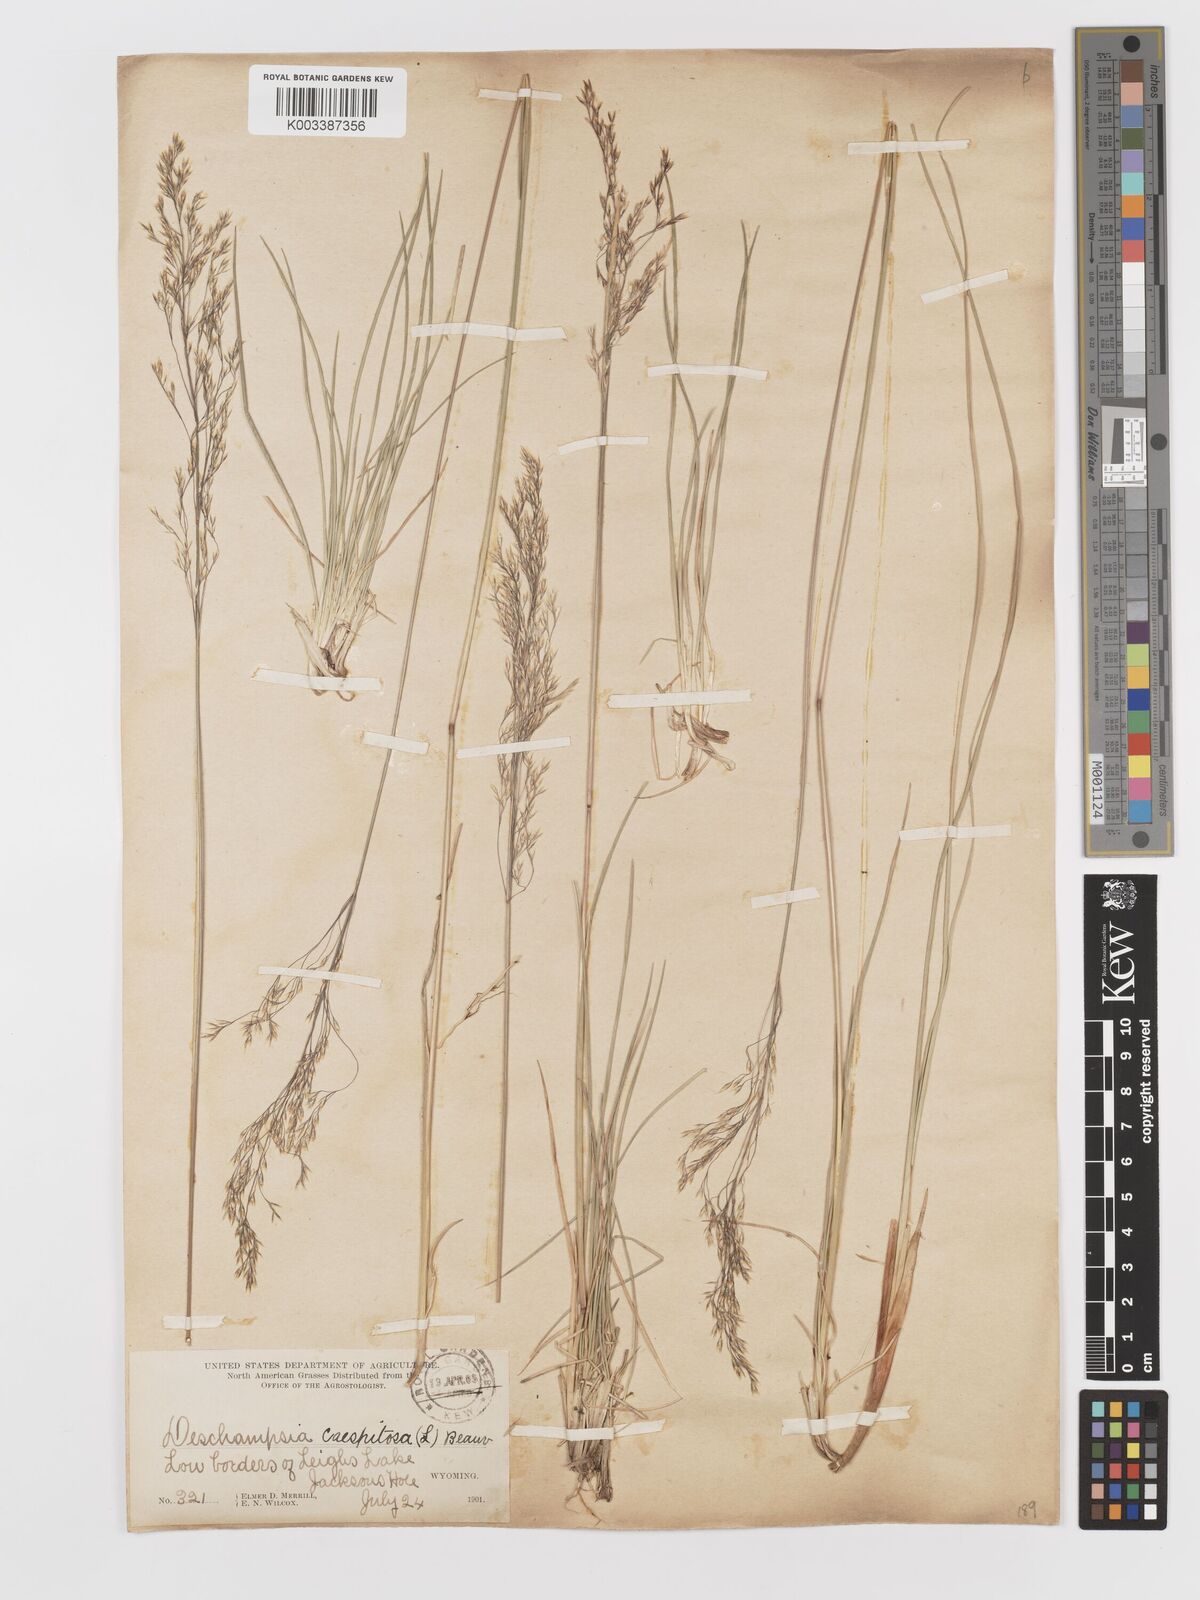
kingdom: Plantae
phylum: Tracheophyta
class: Liliopsida
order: Poales
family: Poaceae
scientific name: Poaceae
